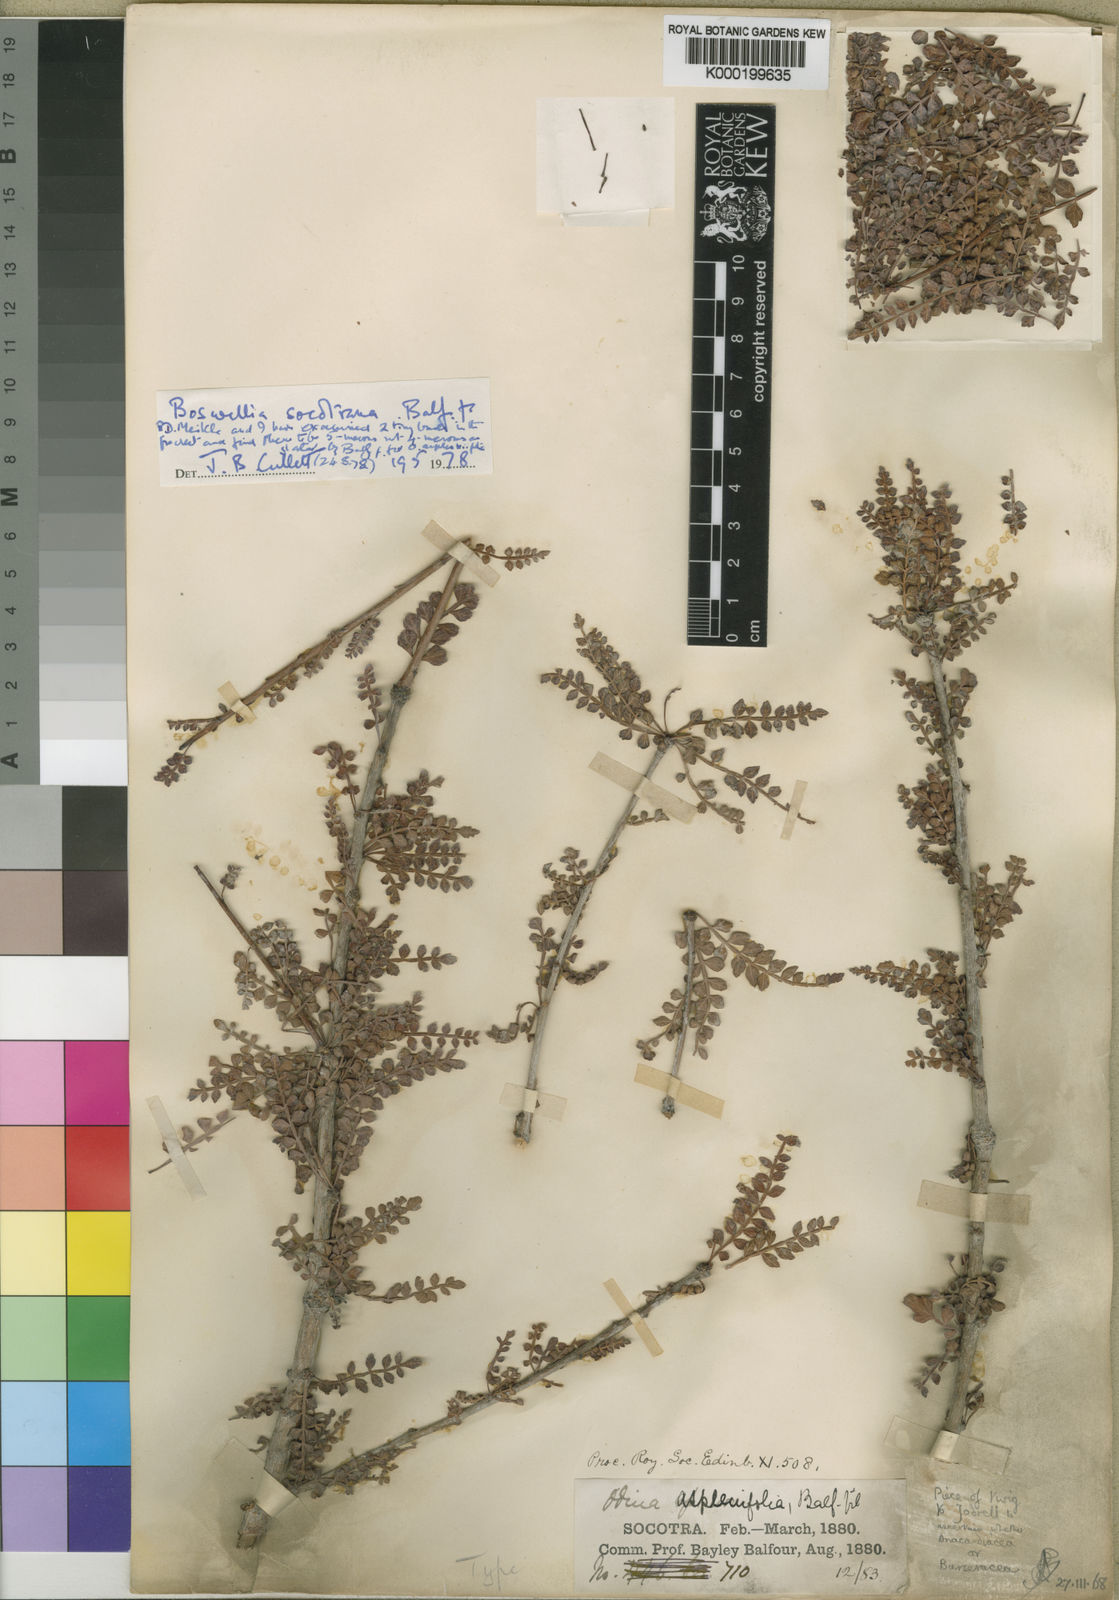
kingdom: Plantae
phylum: Tracheophyta
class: Magnoliopsida
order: Sapindales
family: Burseraceae
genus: Boswellia
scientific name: Boswellia
